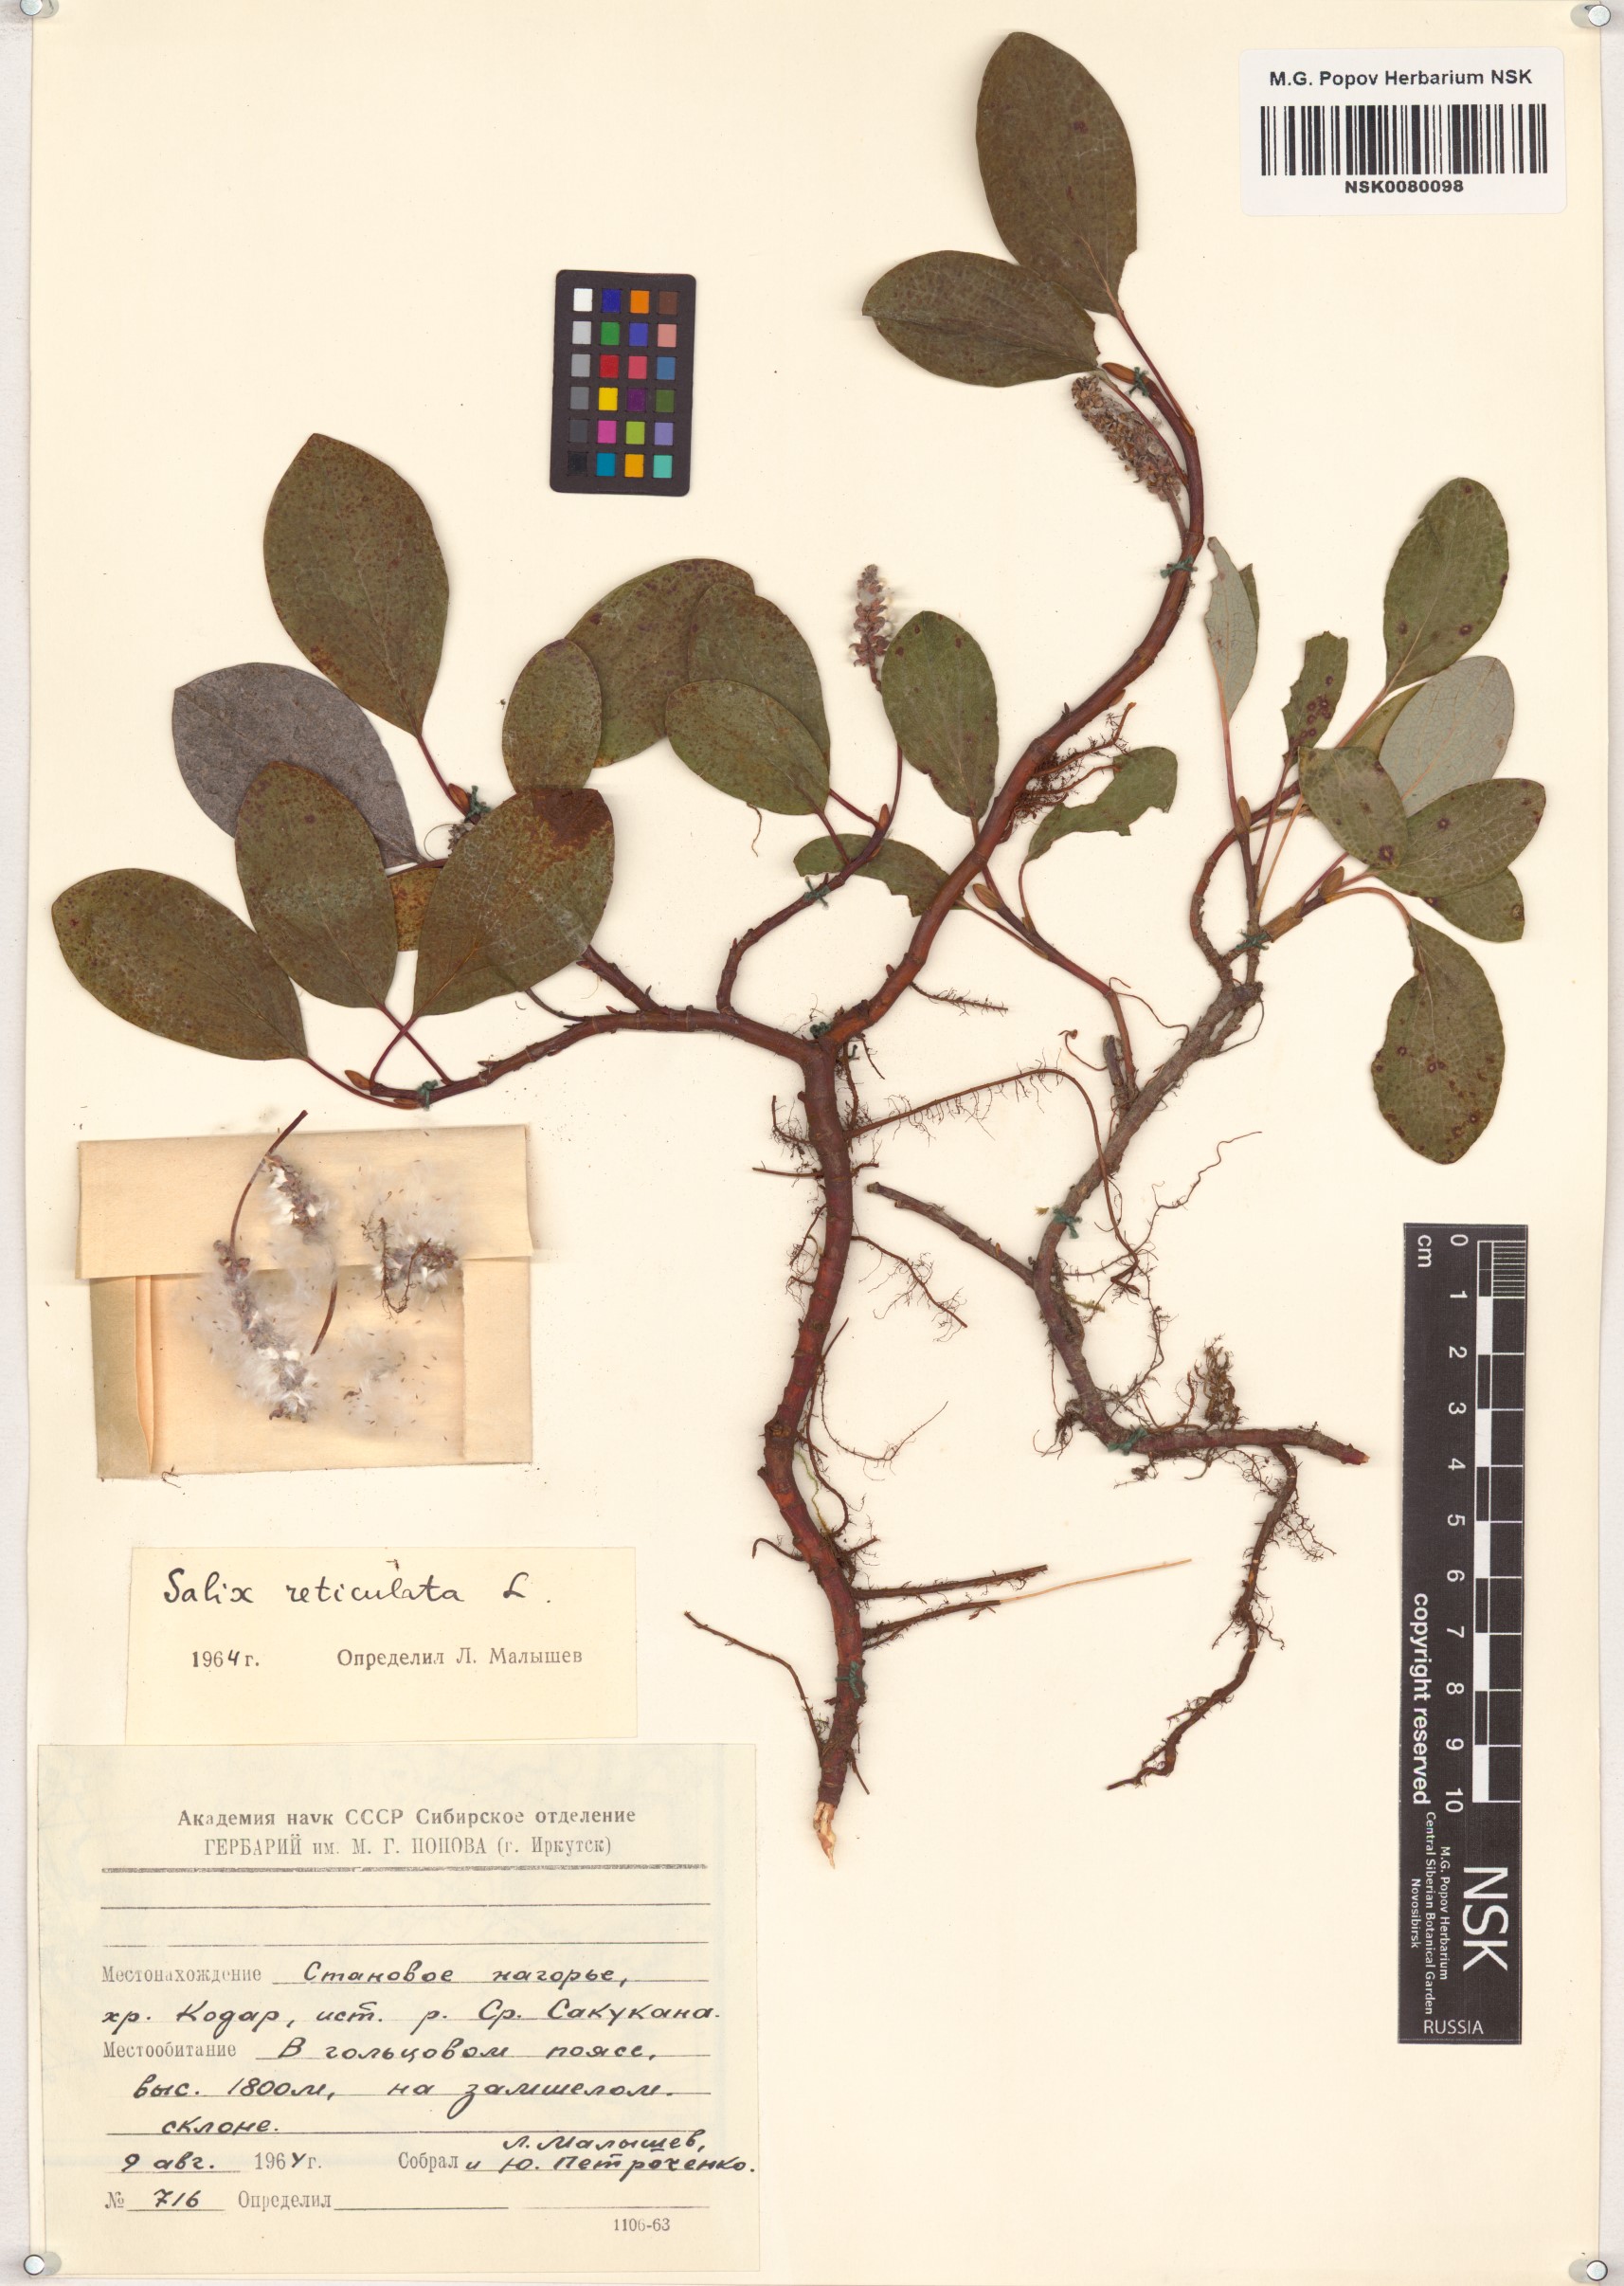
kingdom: Plantae
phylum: Tracheophyta
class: Magnoliopsida
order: Malpighiales
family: Salicaceae
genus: Salix
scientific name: Salix reticulata
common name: Net-leaved willow
